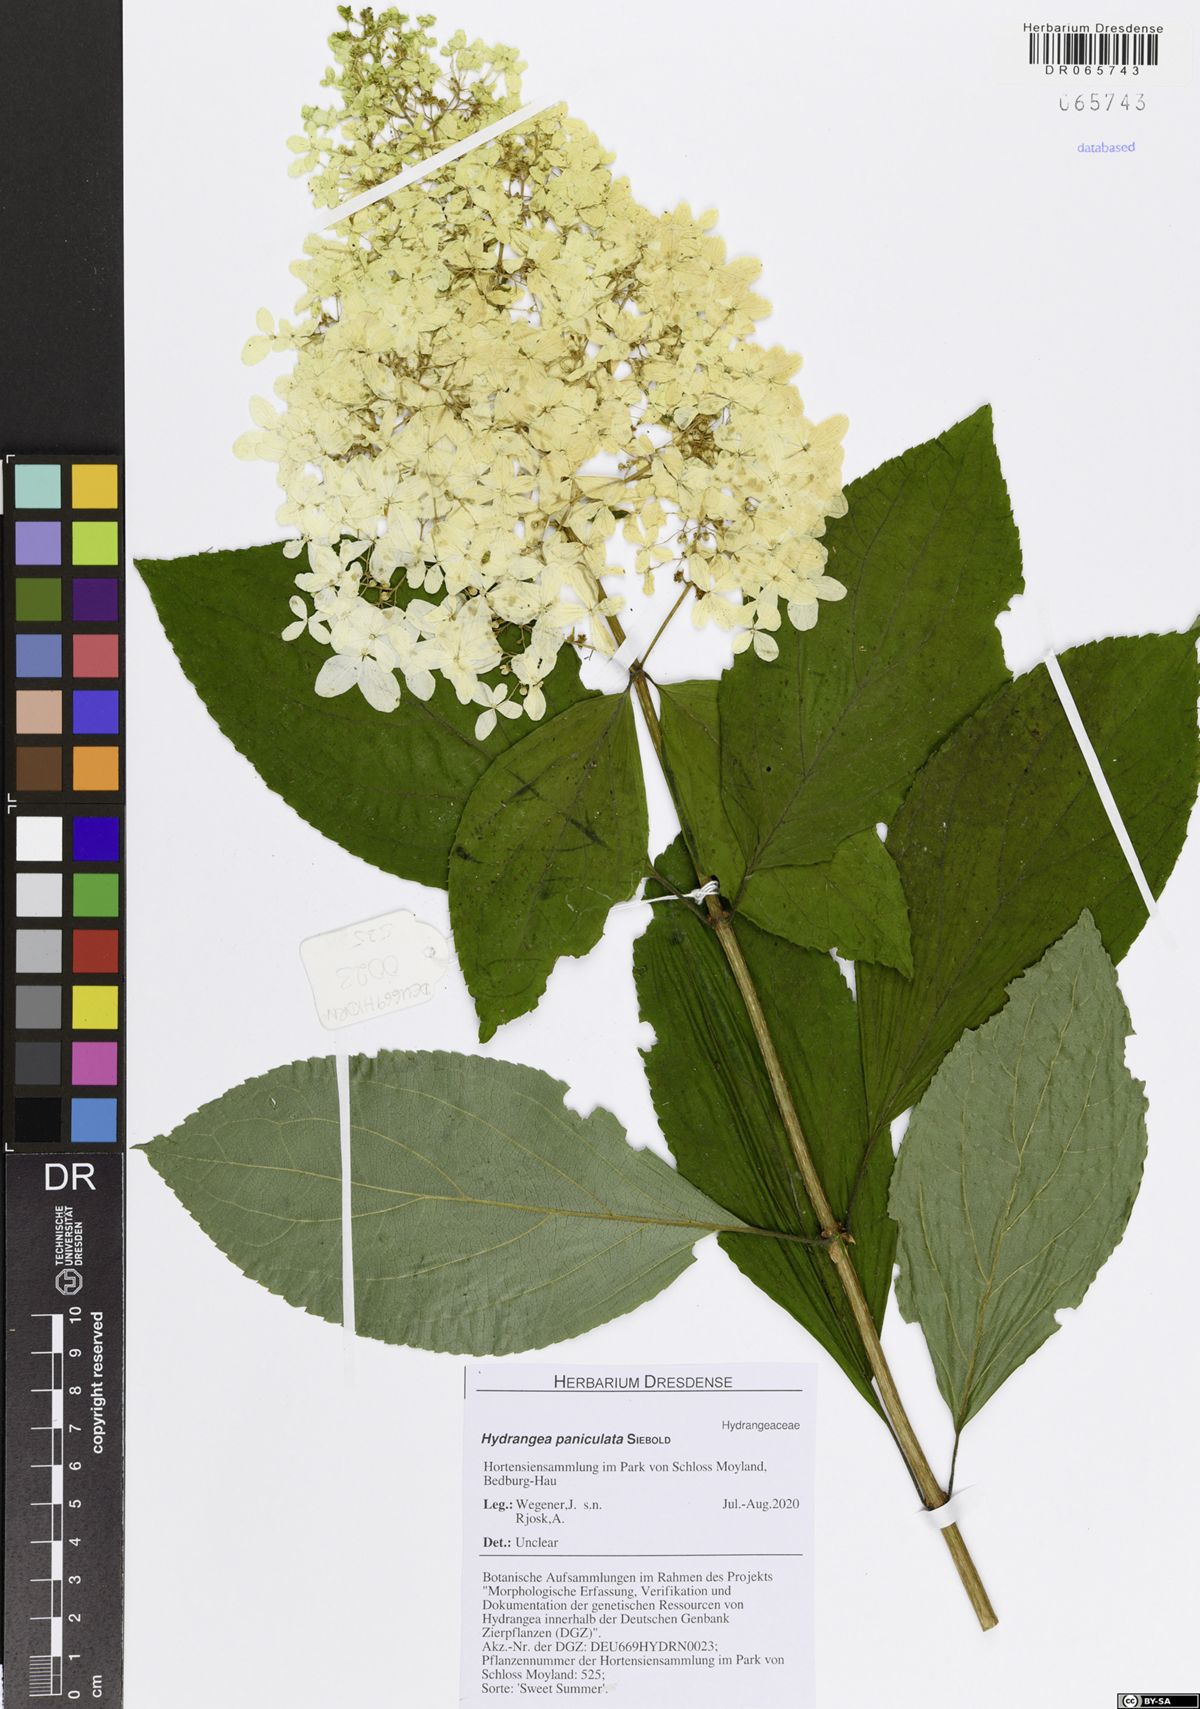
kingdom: Plantae
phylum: Tracheophyta
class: Magnoliopsida
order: Cornales
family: Hydrangeaceae
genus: Hydrangea
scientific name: Hydrangea paniculata
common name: Panicled hydrangea
